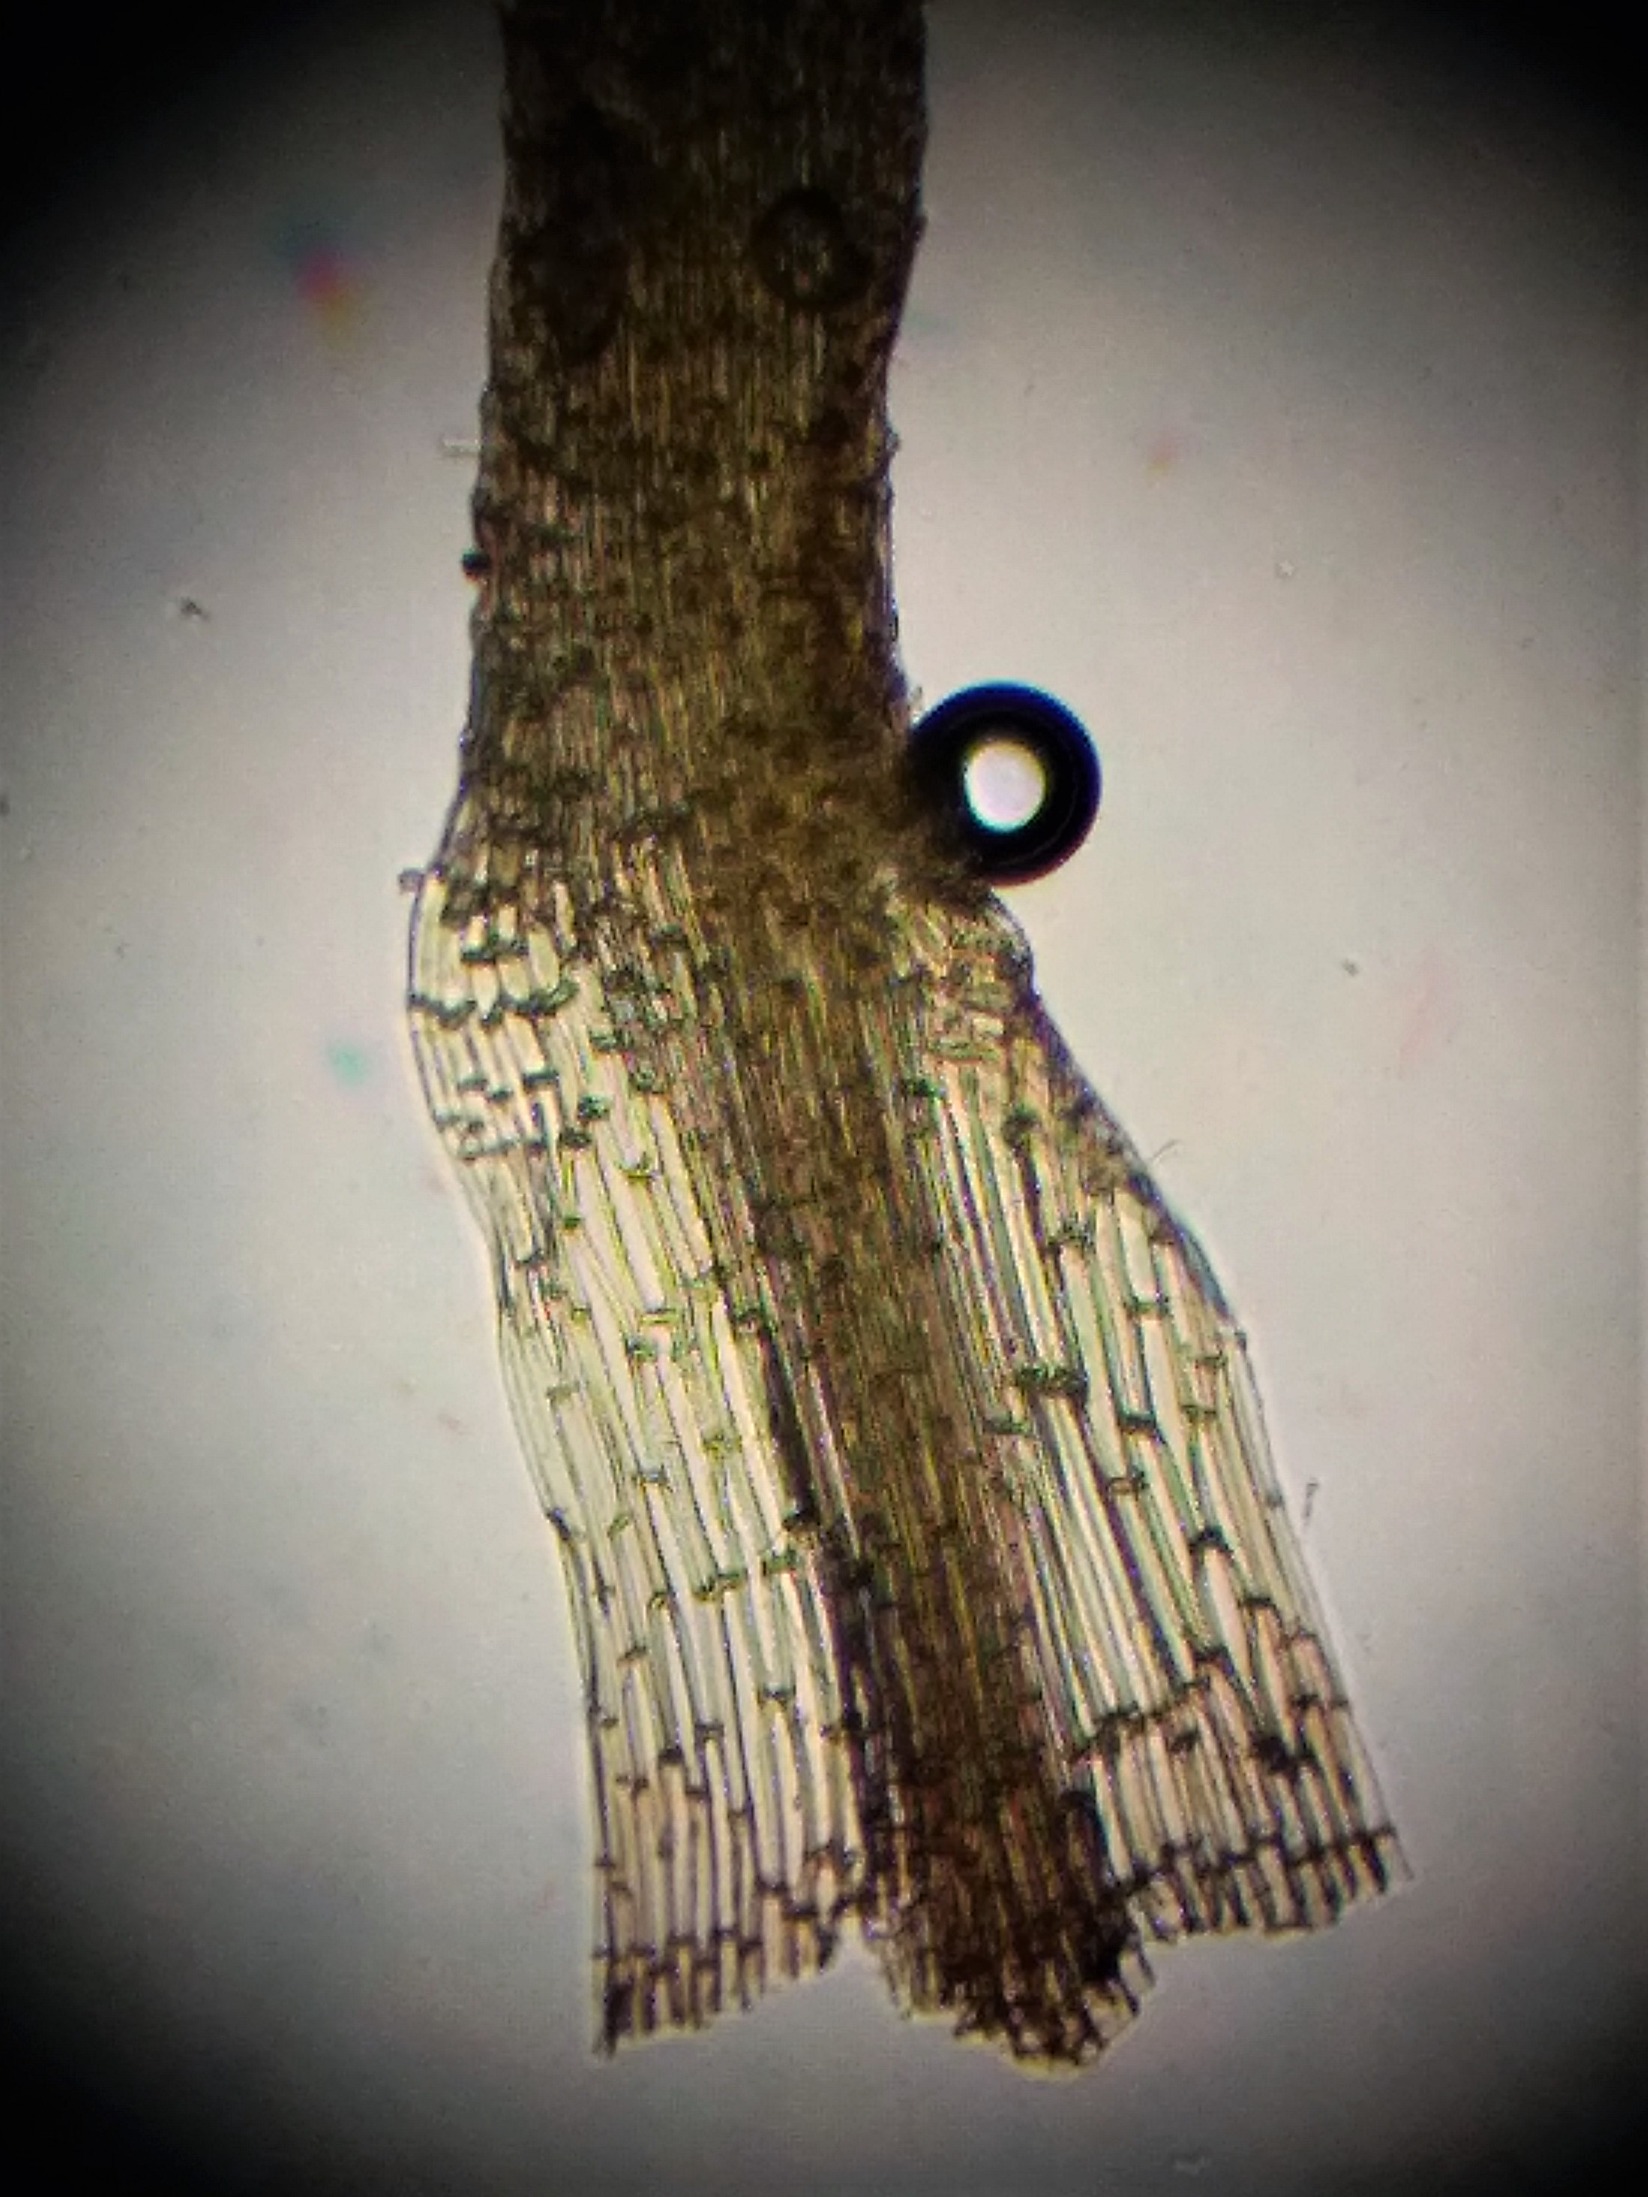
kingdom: Plantae
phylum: Bryophyta
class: Bryopsida
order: Bartramiales
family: Bartramiaceae
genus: Bartramia
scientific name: Bartramia ithyphylla
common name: Blågrøn kuglekapsel
